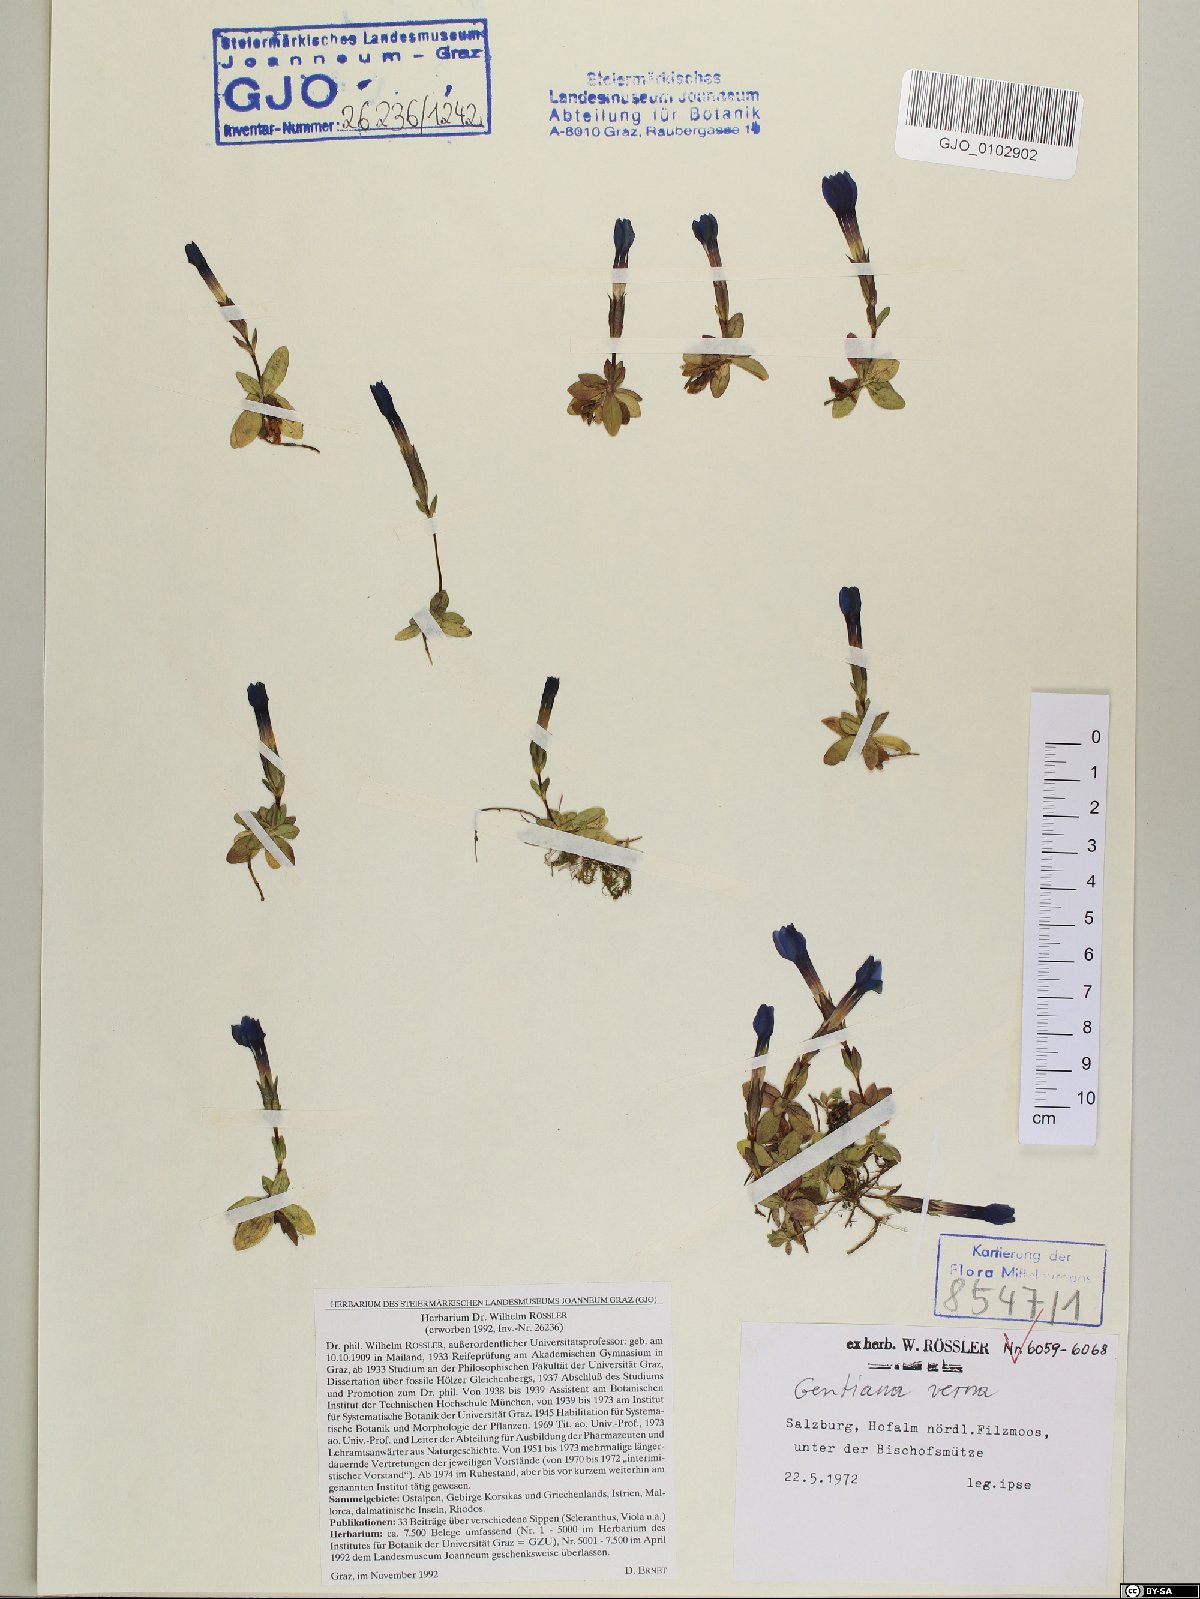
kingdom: Plantae
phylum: Tracheophyta
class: Magnoliopsida
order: Gentianales
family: Gentianaceae
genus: Gentiana
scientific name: Gentiana verna
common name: Spring gentian
